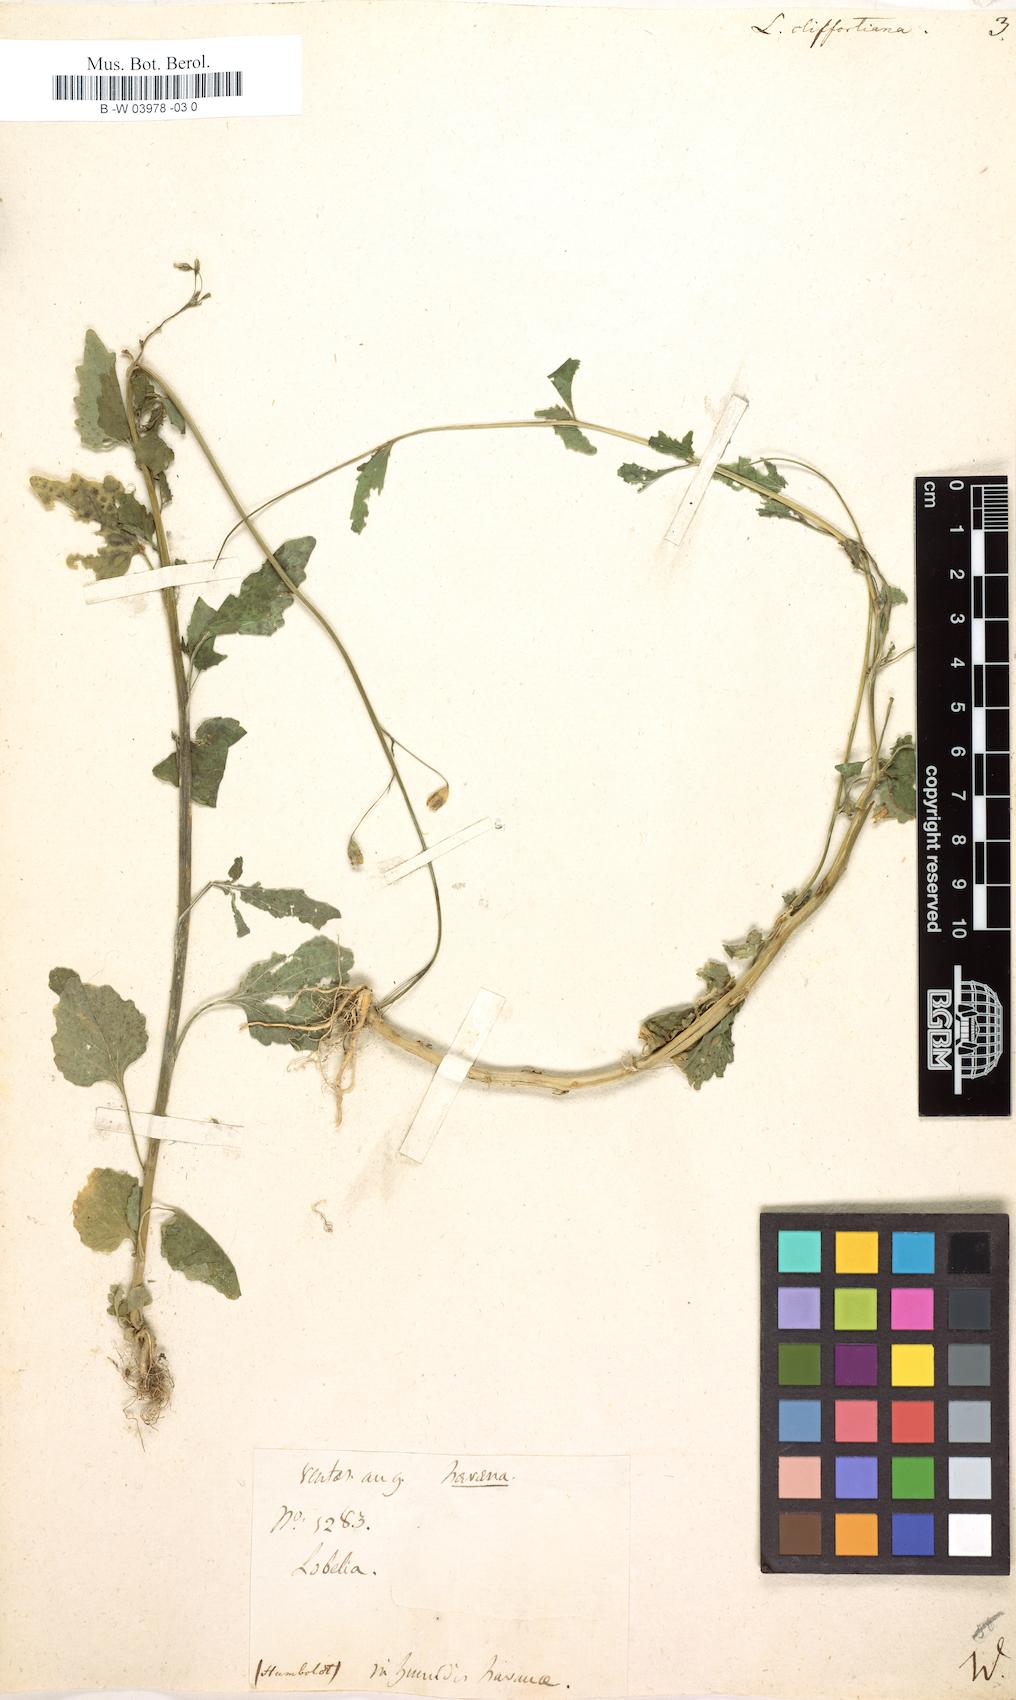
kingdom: Plantae
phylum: Tracheophyta
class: Magnoliopsida
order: Asterales
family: Campanulaceae
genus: Lobelia
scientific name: Lobelia cliffortiana
